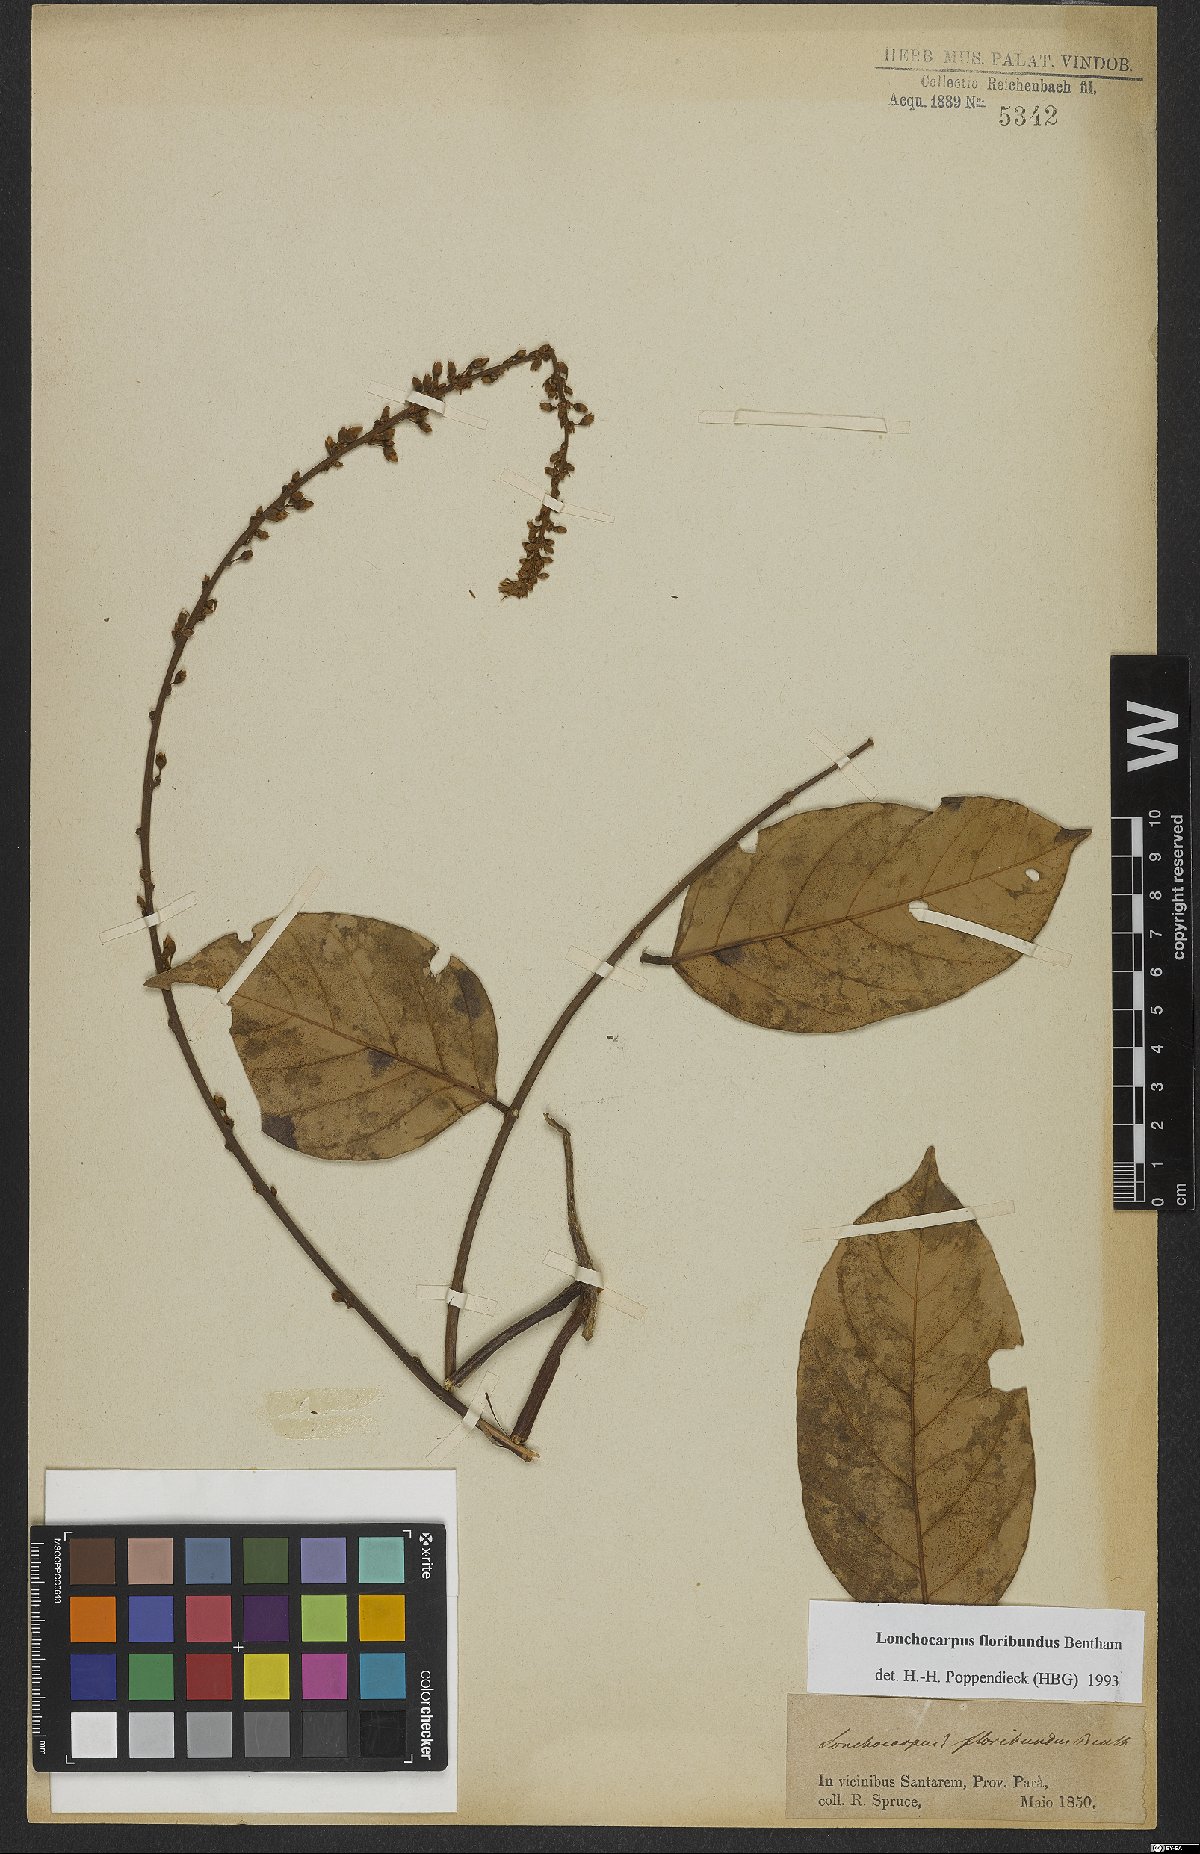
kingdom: Plantae
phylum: Tracheophyta
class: Magnoliopsida
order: Fabales
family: Fabaceae
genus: Deguelia
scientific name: Deguelia nitidula
